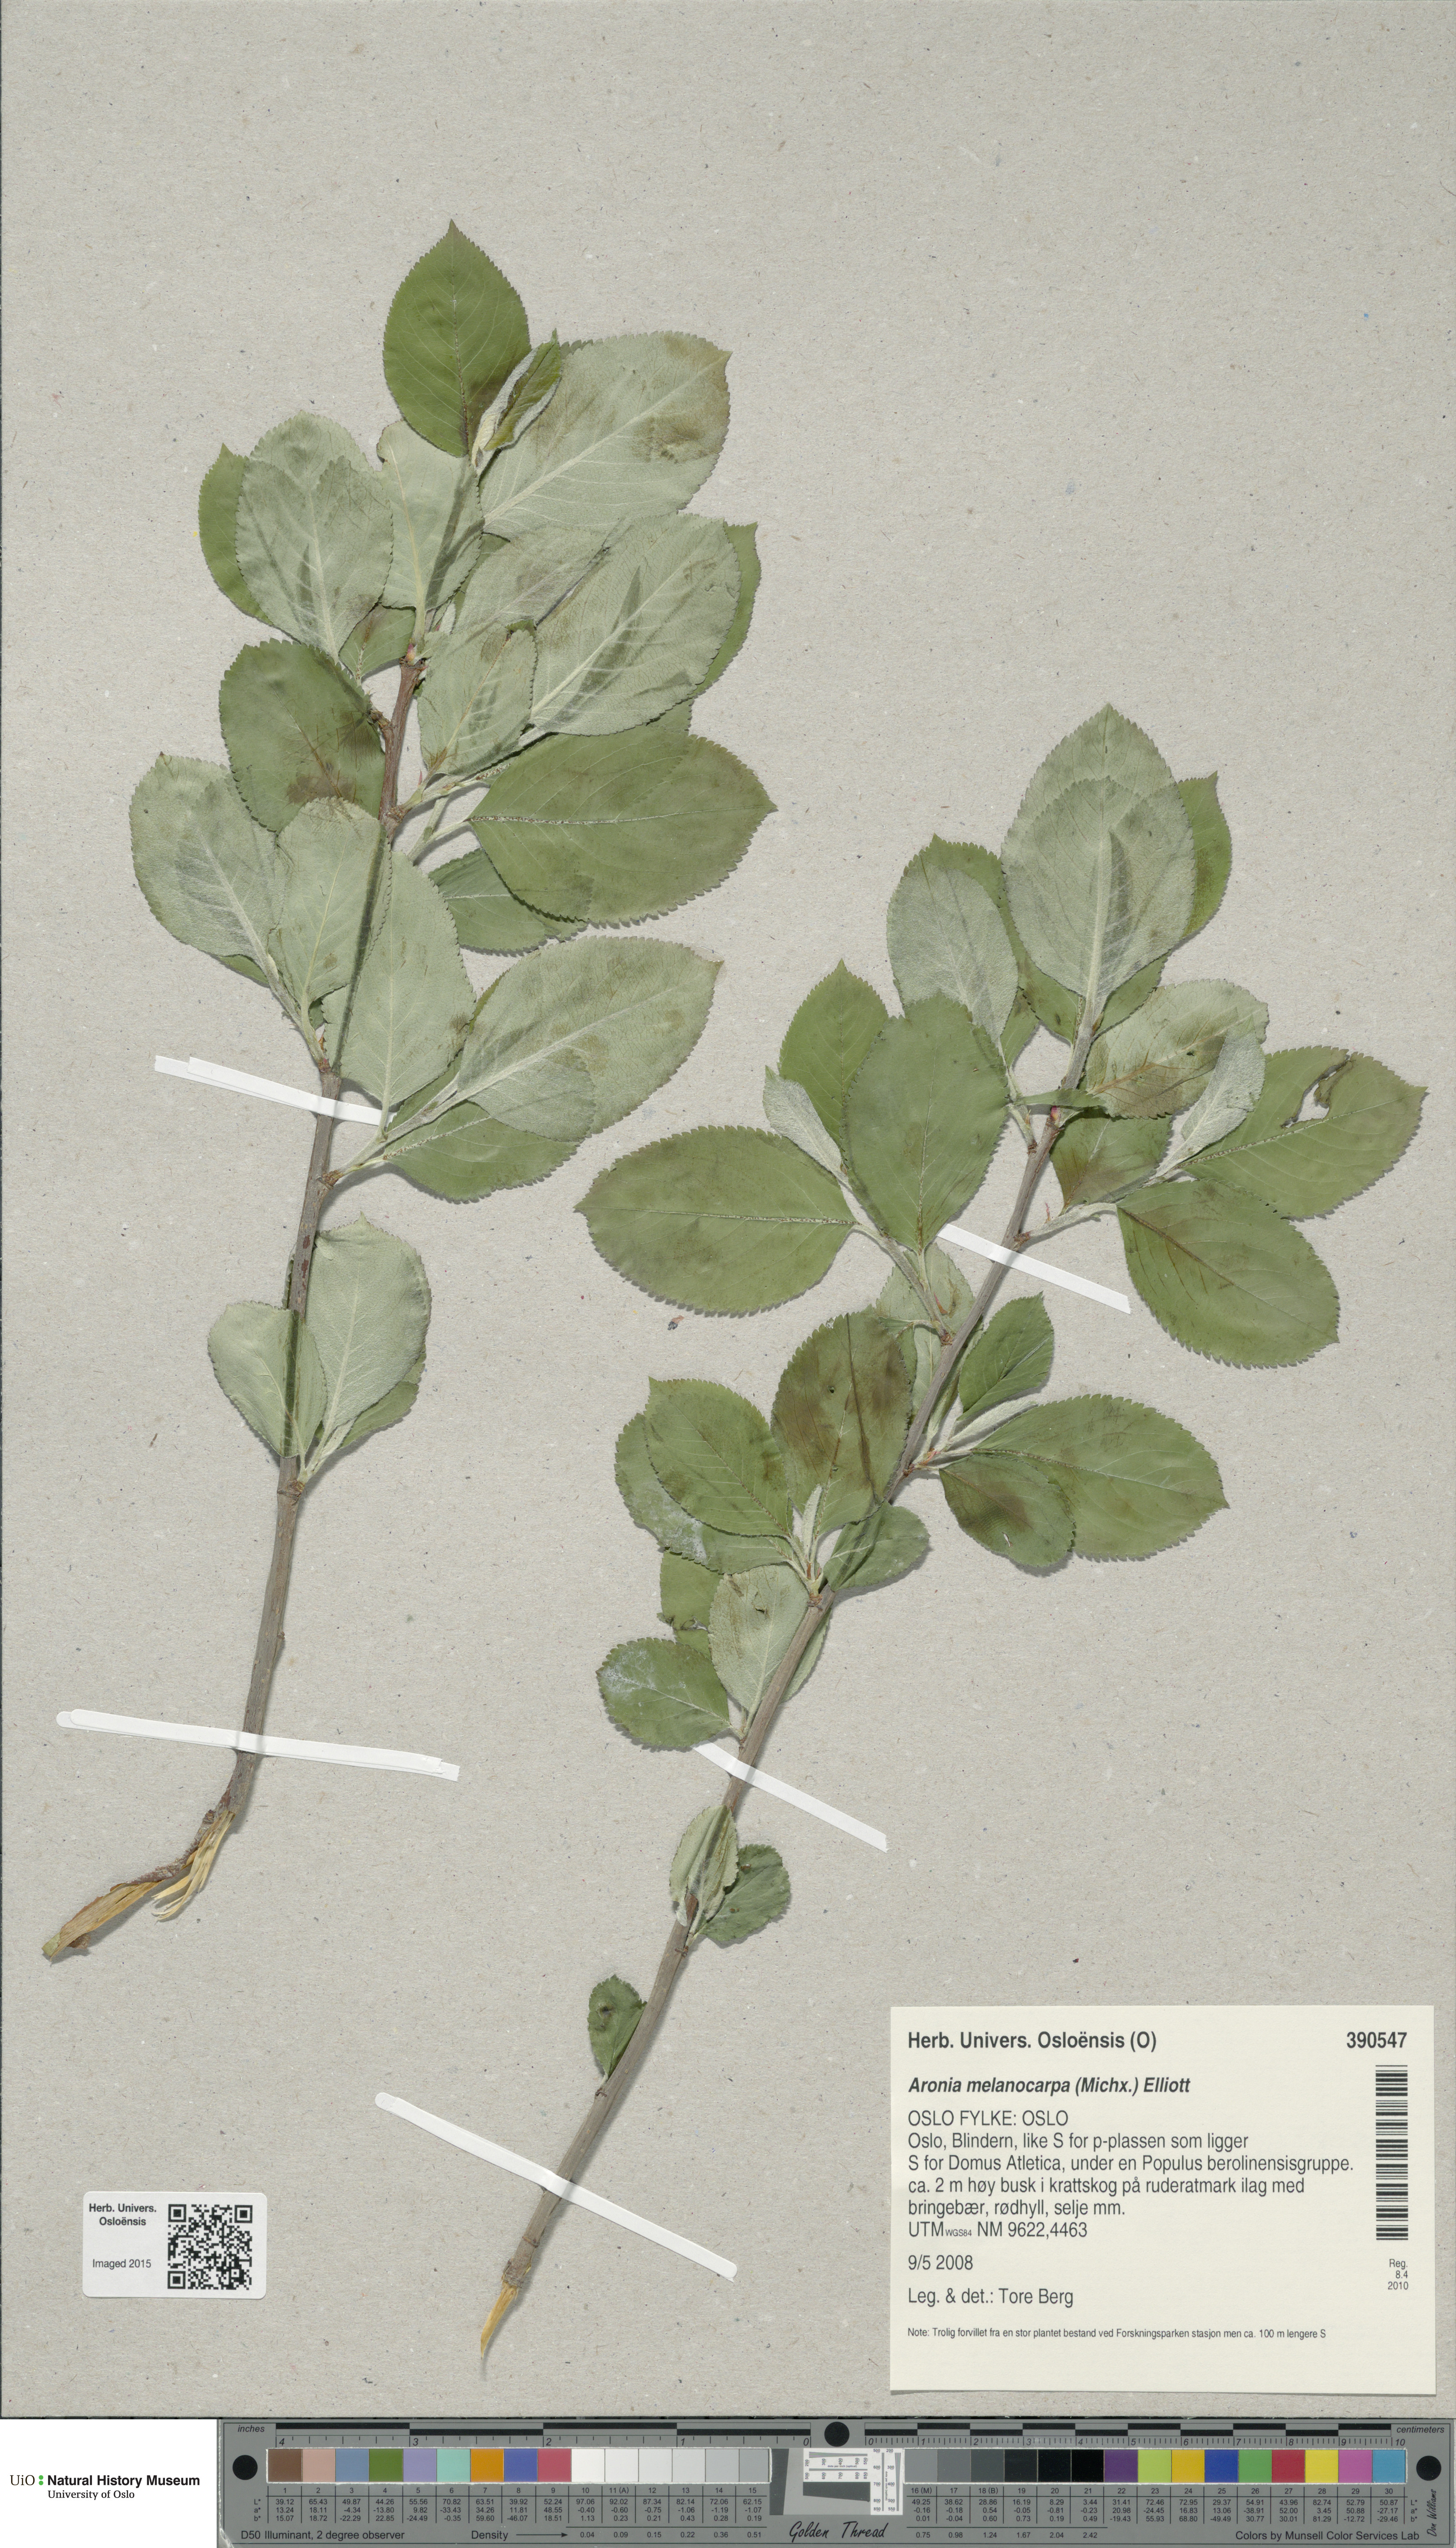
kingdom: Plantae
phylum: Tracheophyta
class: Magnoliopsida
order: Rosales
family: Rosaceae
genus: Sorbaronia
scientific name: Sorbaronia arsenii
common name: Arsène's mountain-ash
